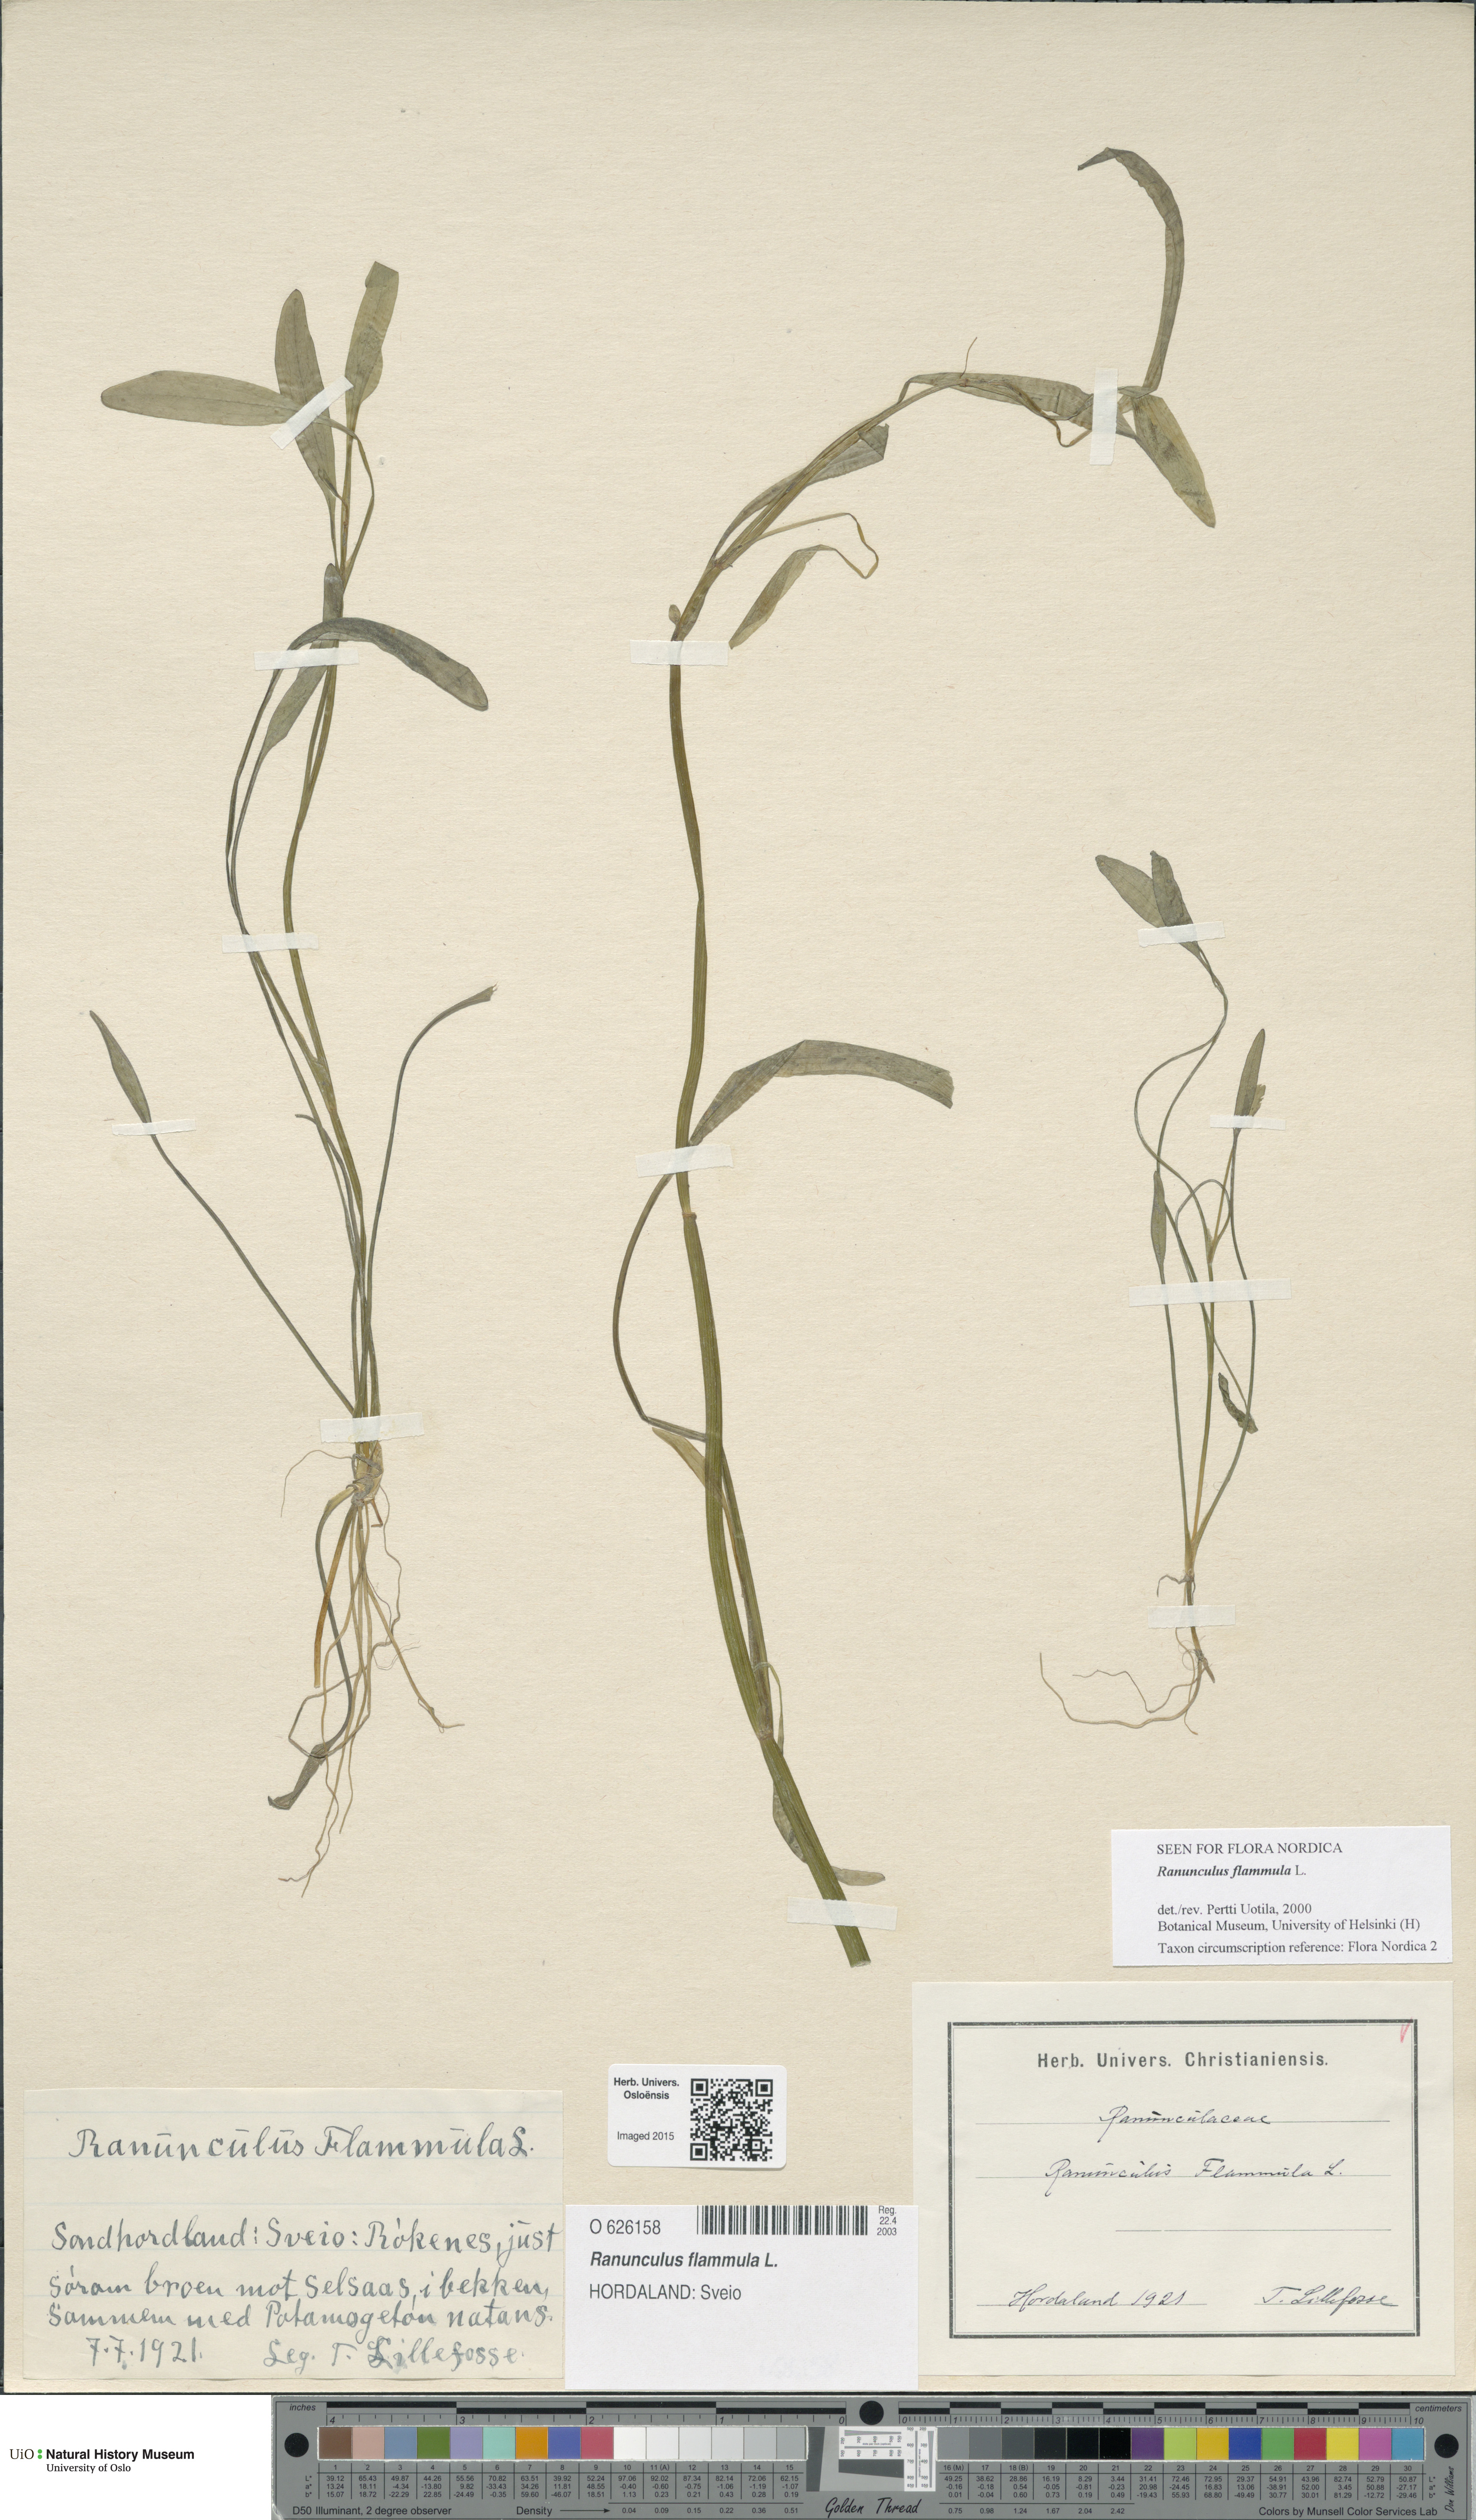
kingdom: Plantae
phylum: Tracheophyta
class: Magnoliopsida
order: Ranunculales
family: Ranunculaceae
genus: Ranunculus
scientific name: Ranunculus flammula
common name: Lesser spearwort
